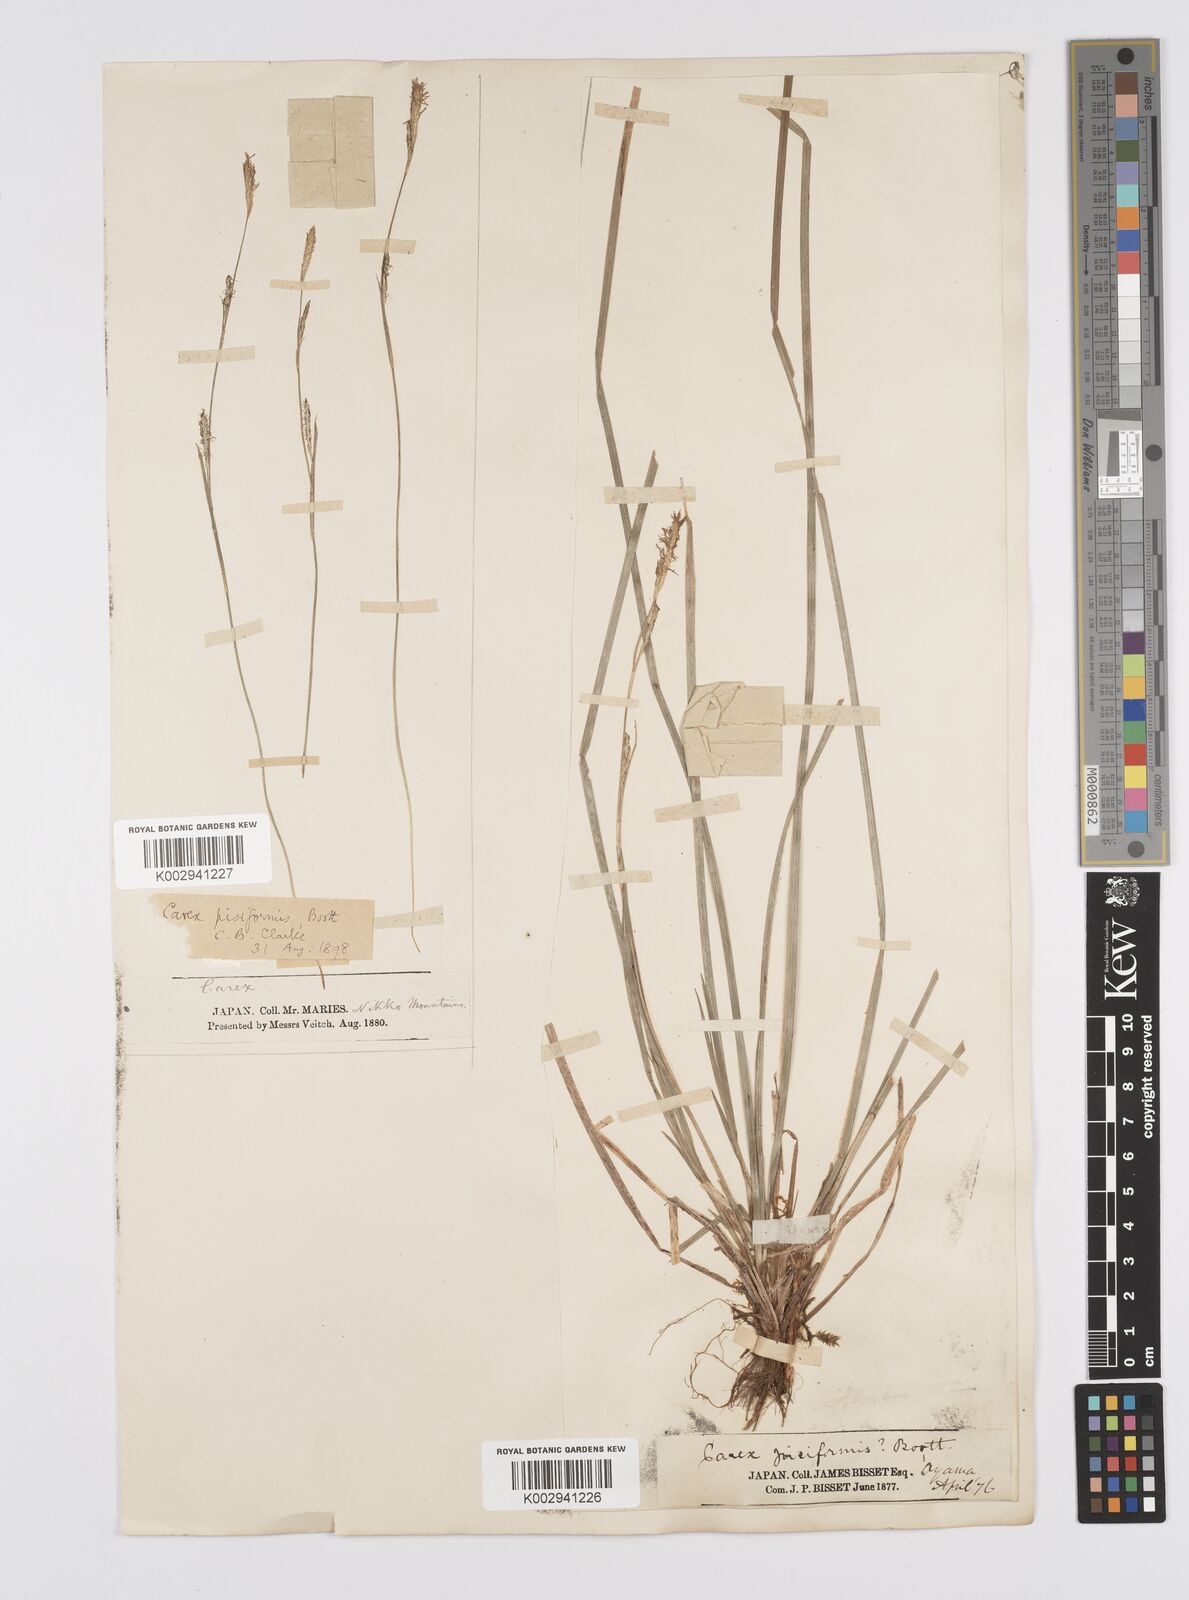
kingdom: Plantae
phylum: Tracheophyta
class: Liliopsida
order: Poales
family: Cyperaceae
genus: Carex
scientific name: Carex pisiformis
